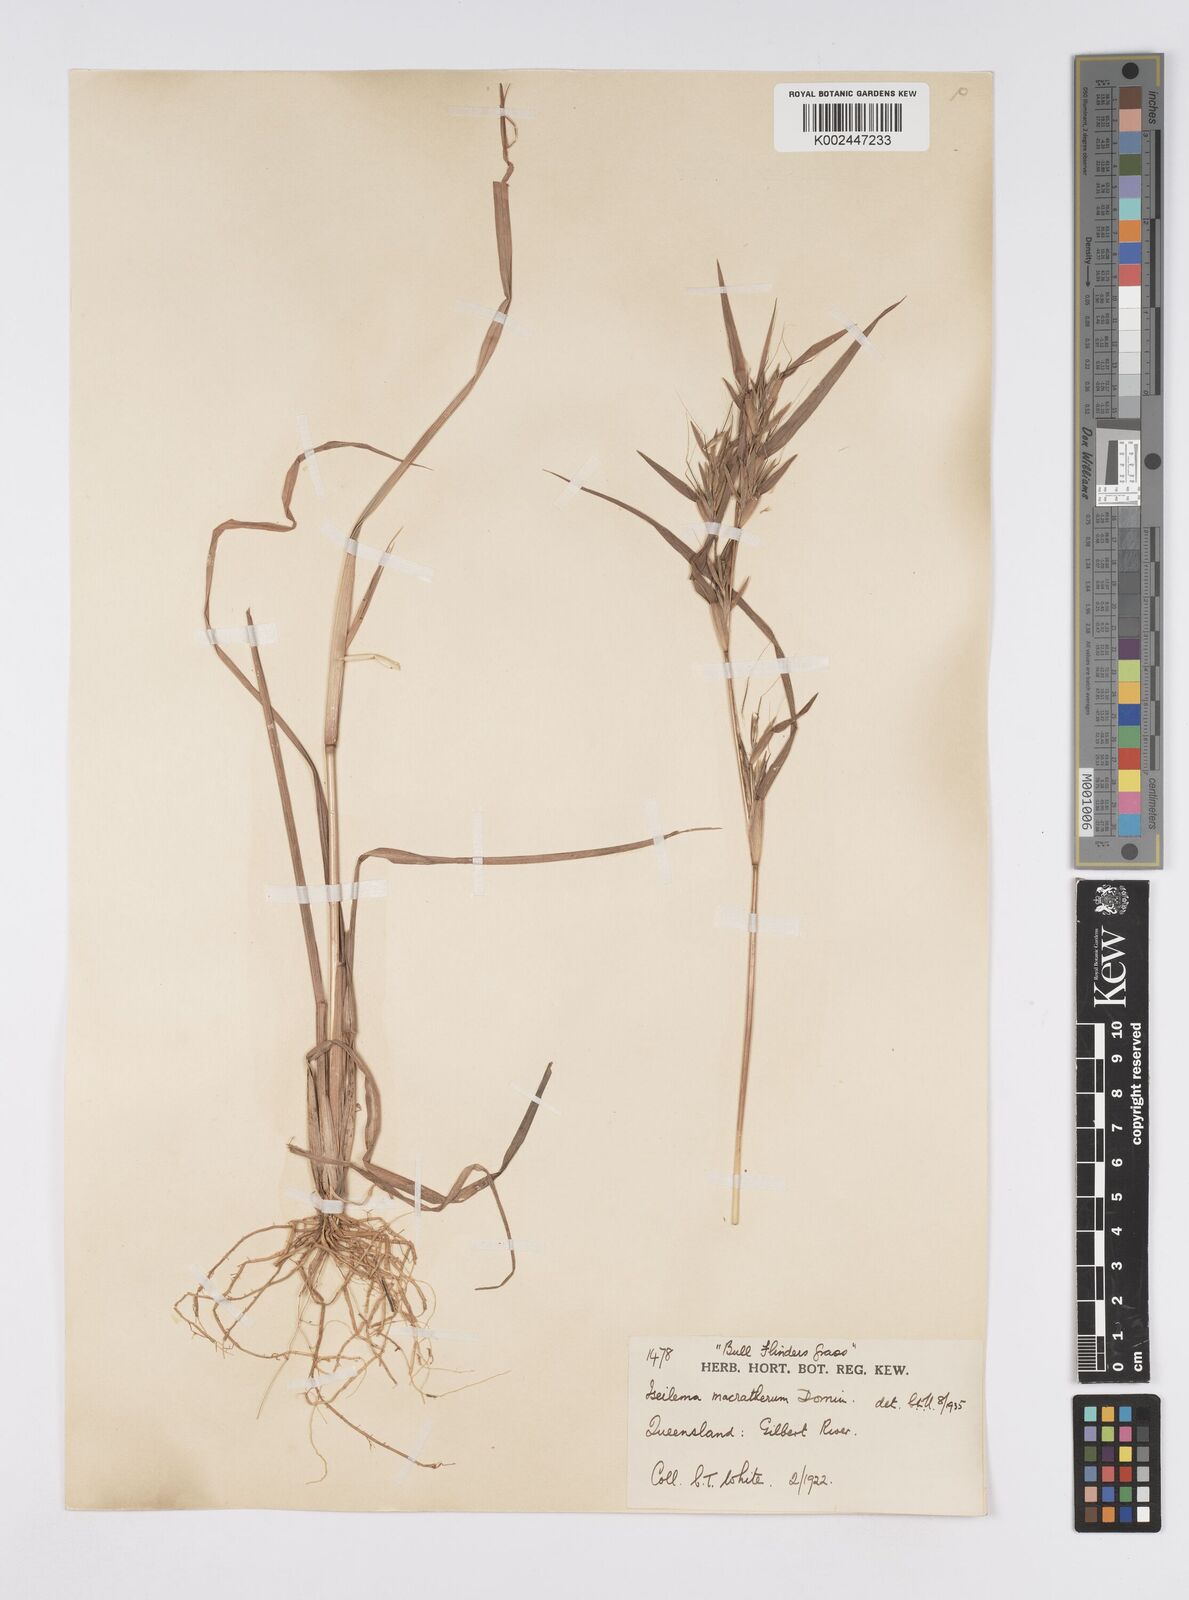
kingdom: Plantae
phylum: Tracheophyta
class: Liliopsida
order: Poales
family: Poaceae
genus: Iseilema
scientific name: Iseilema macratherum
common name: Bull flinders grass
